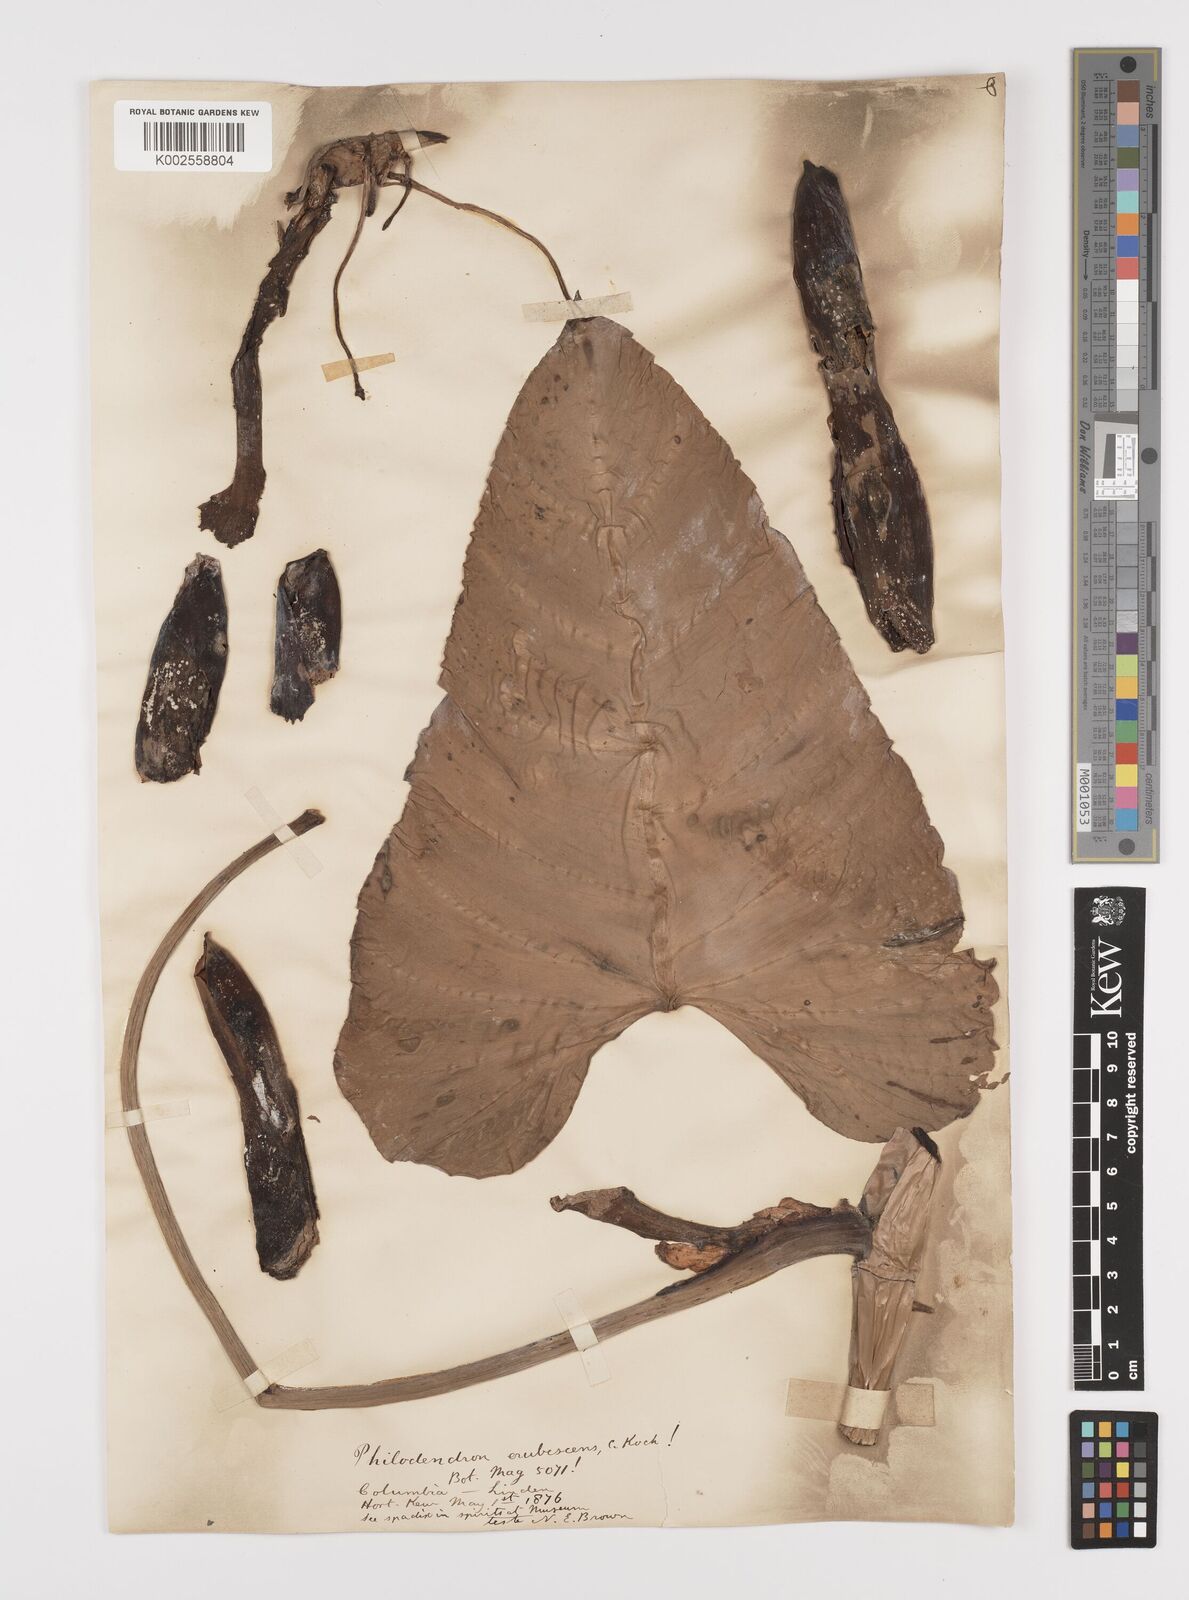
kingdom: Plantae
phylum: Tracheophyta
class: Liliopsida
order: Alismatales
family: Araceae
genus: Philodendron
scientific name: Philodendron erubescens
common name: Philodendron
